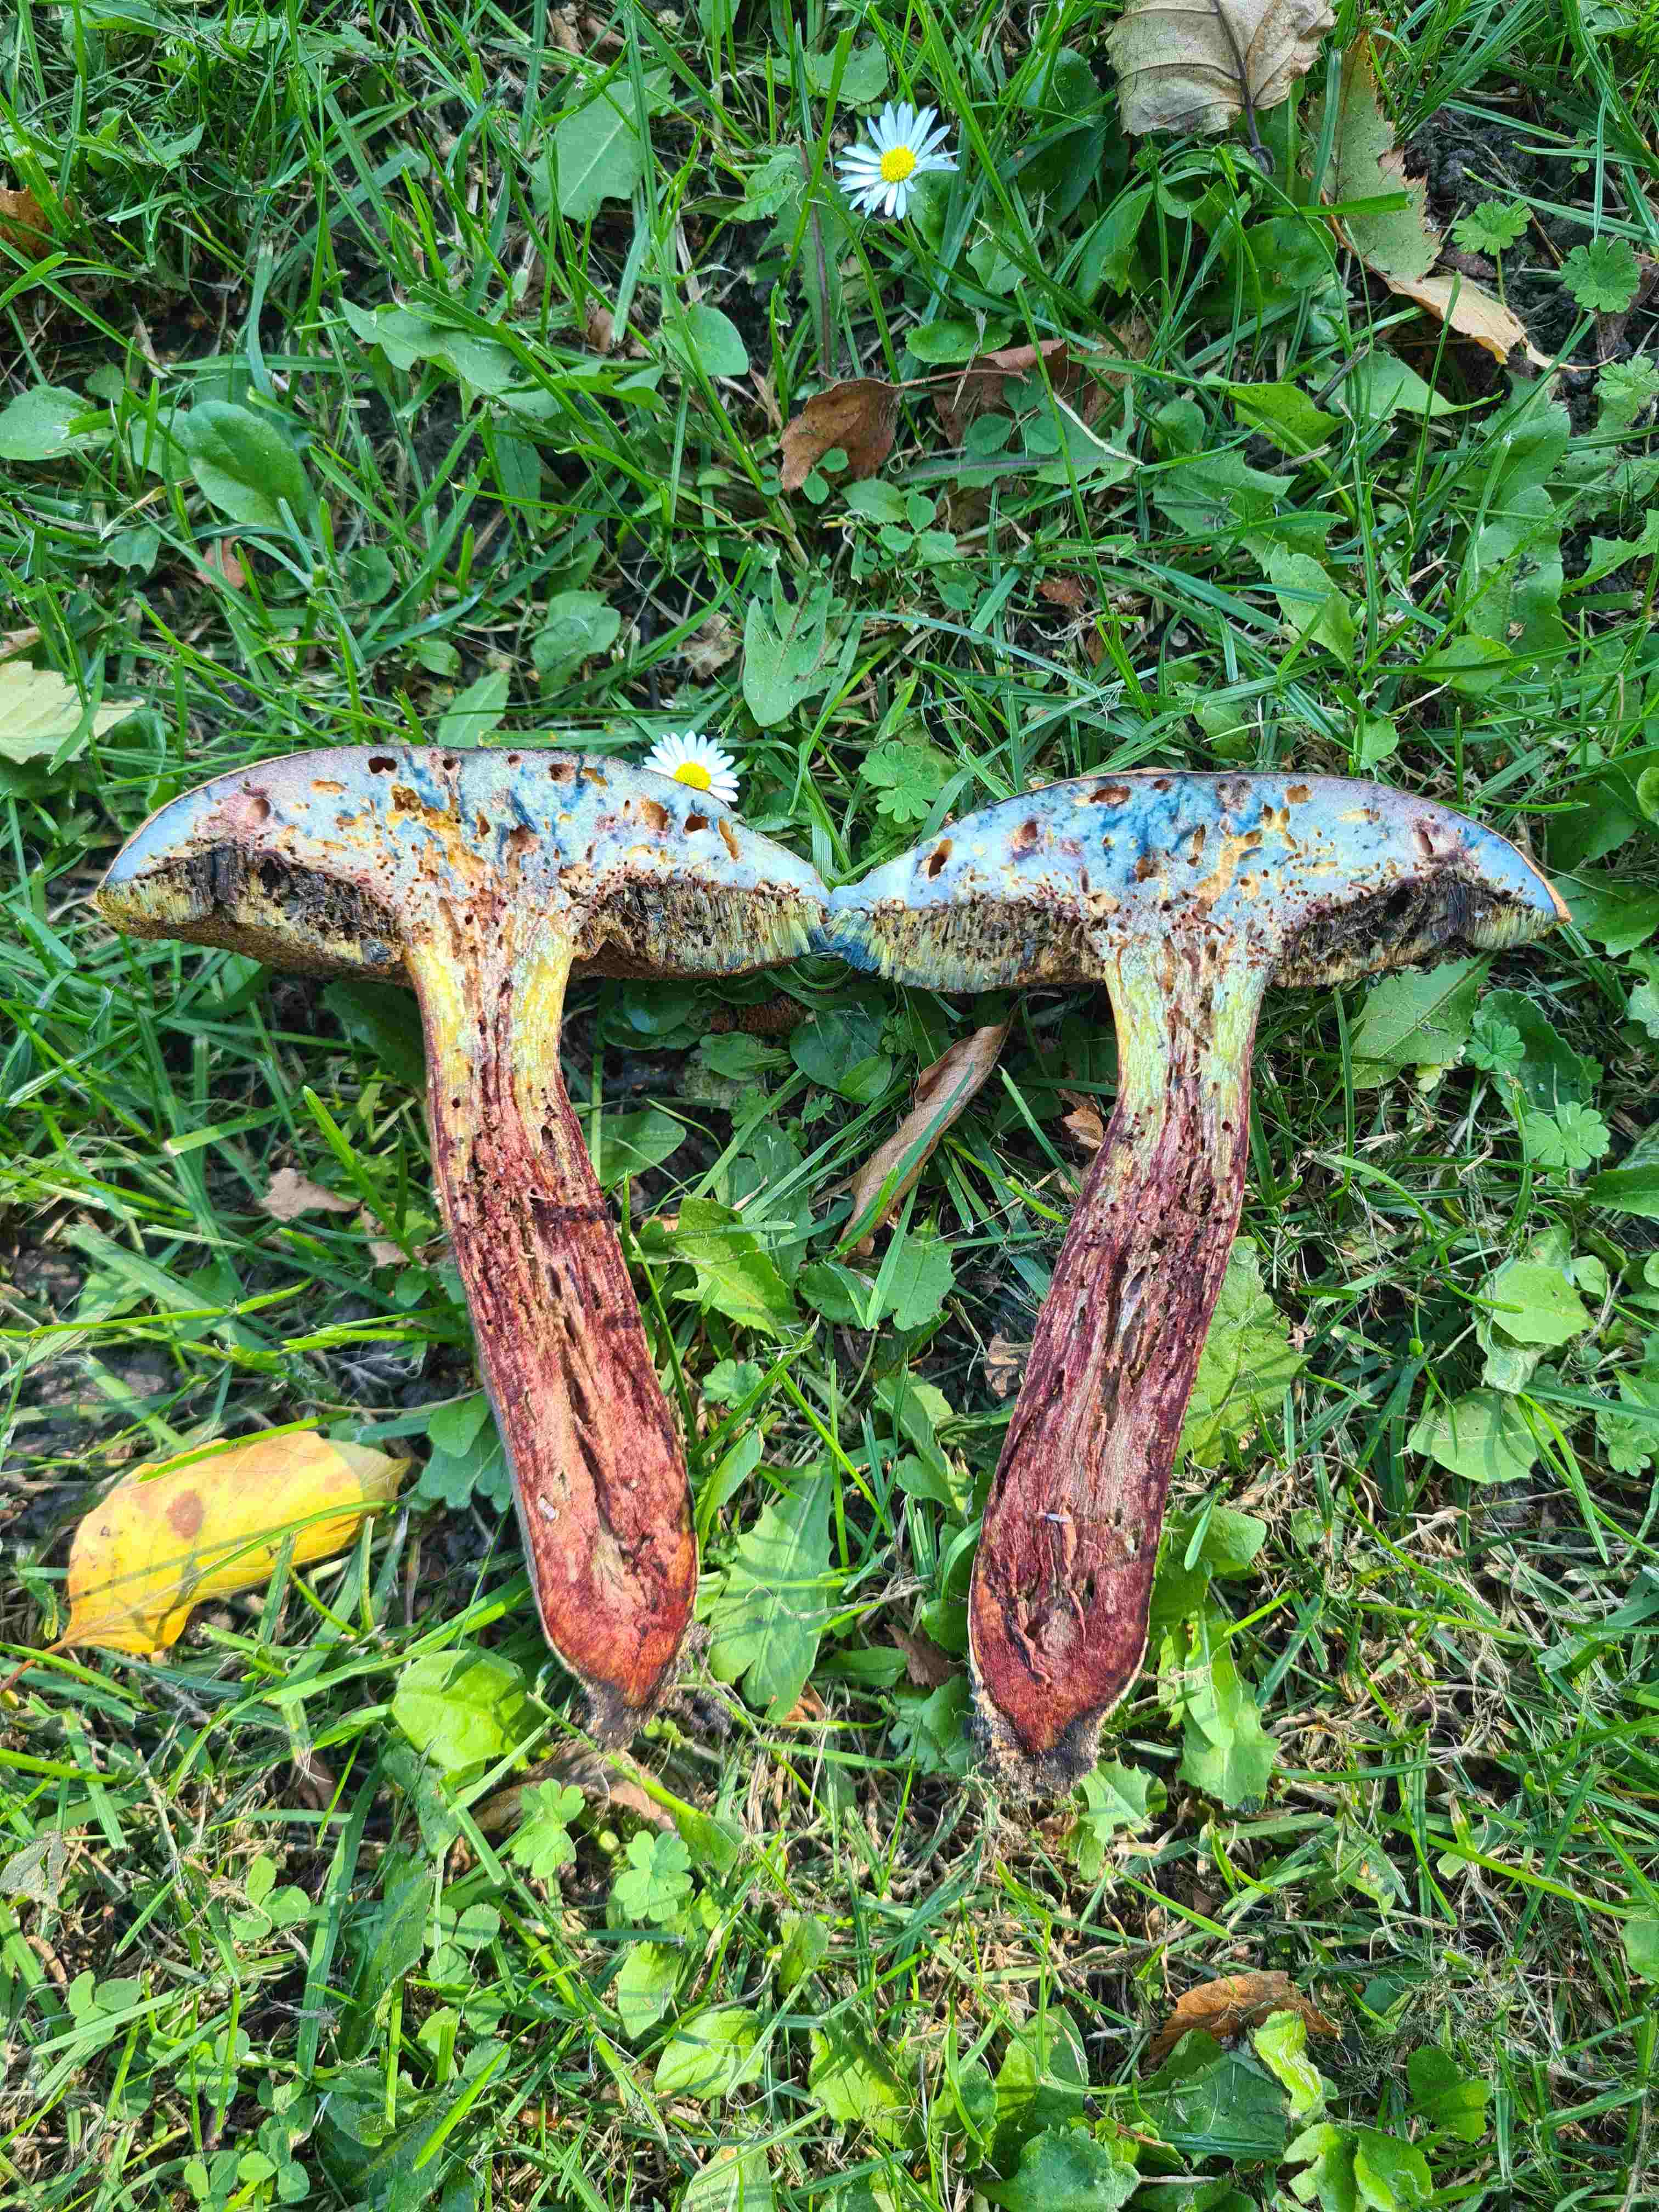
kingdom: Fungi
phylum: Basidiomycota
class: Agaricomycetes
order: Boletales
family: Boletaceae
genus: Suillellus
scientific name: Suillellus luridus
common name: netstokket indigorørhat
